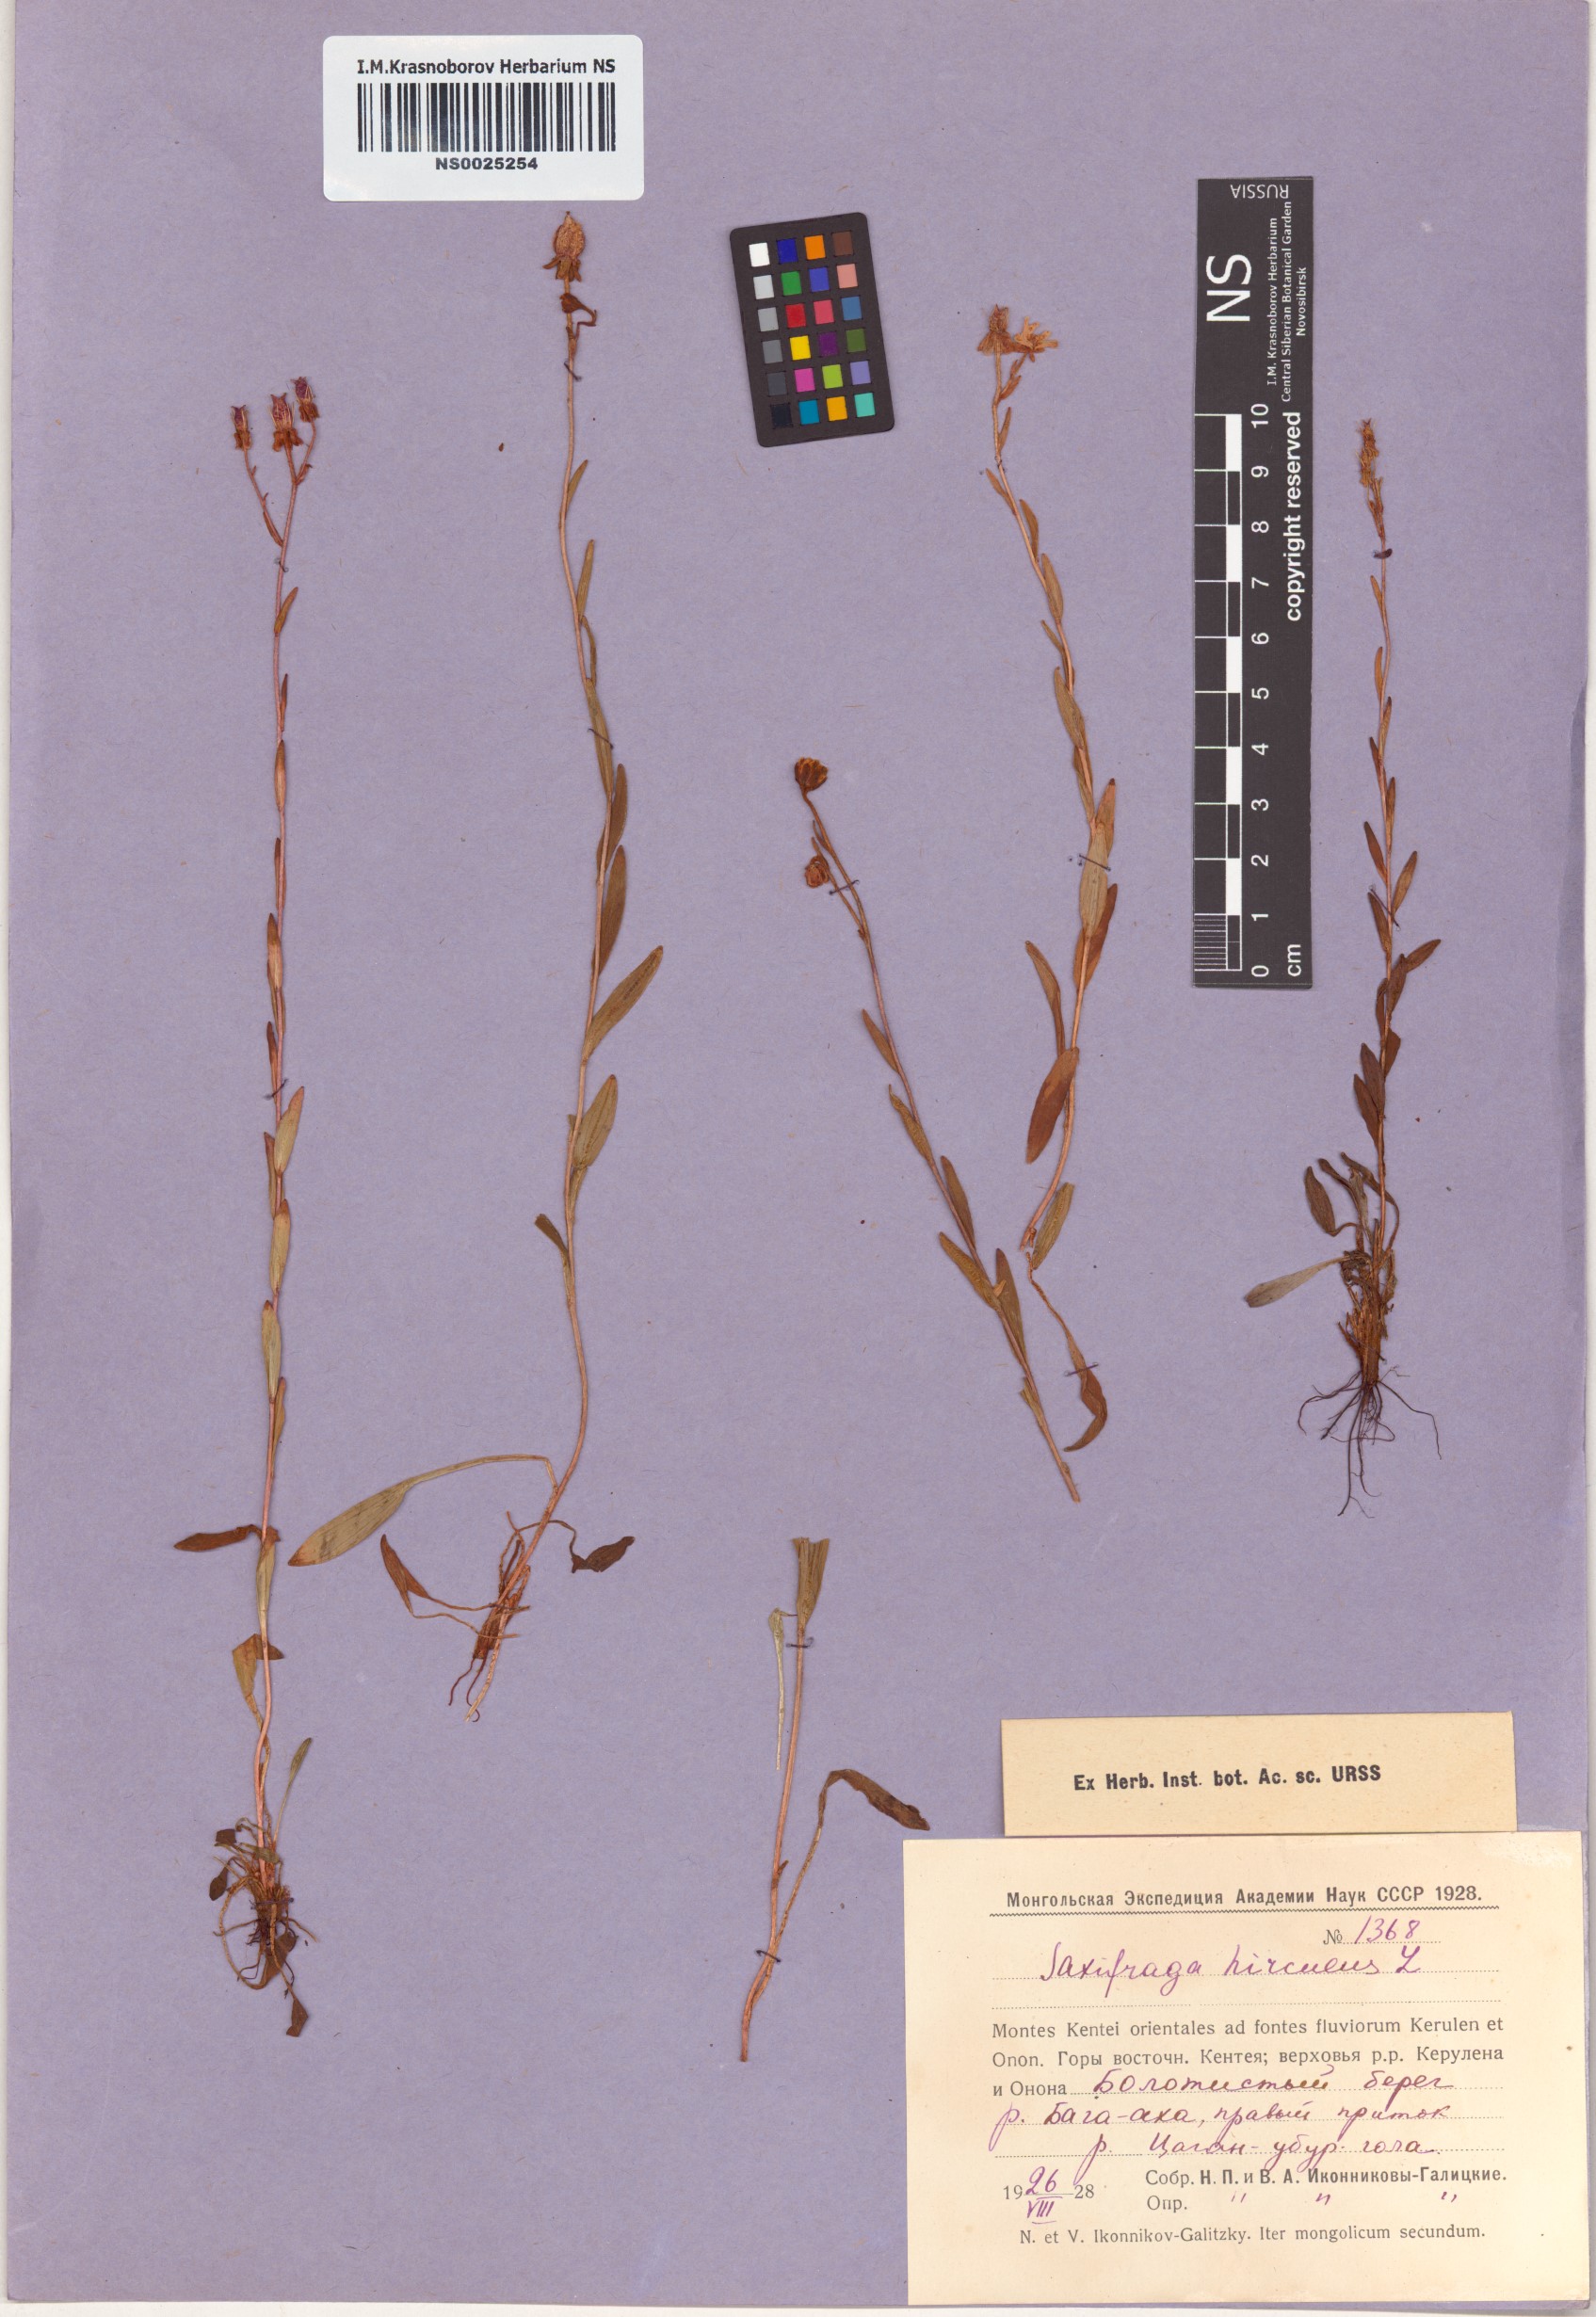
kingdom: Plantae
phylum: Tracheophyta
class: Magnoliopsida
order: Saxifragales
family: Saxifragaceae
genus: Saxifraga
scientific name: Saxifraga hirculus
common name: Yellow marsh saxifrage
